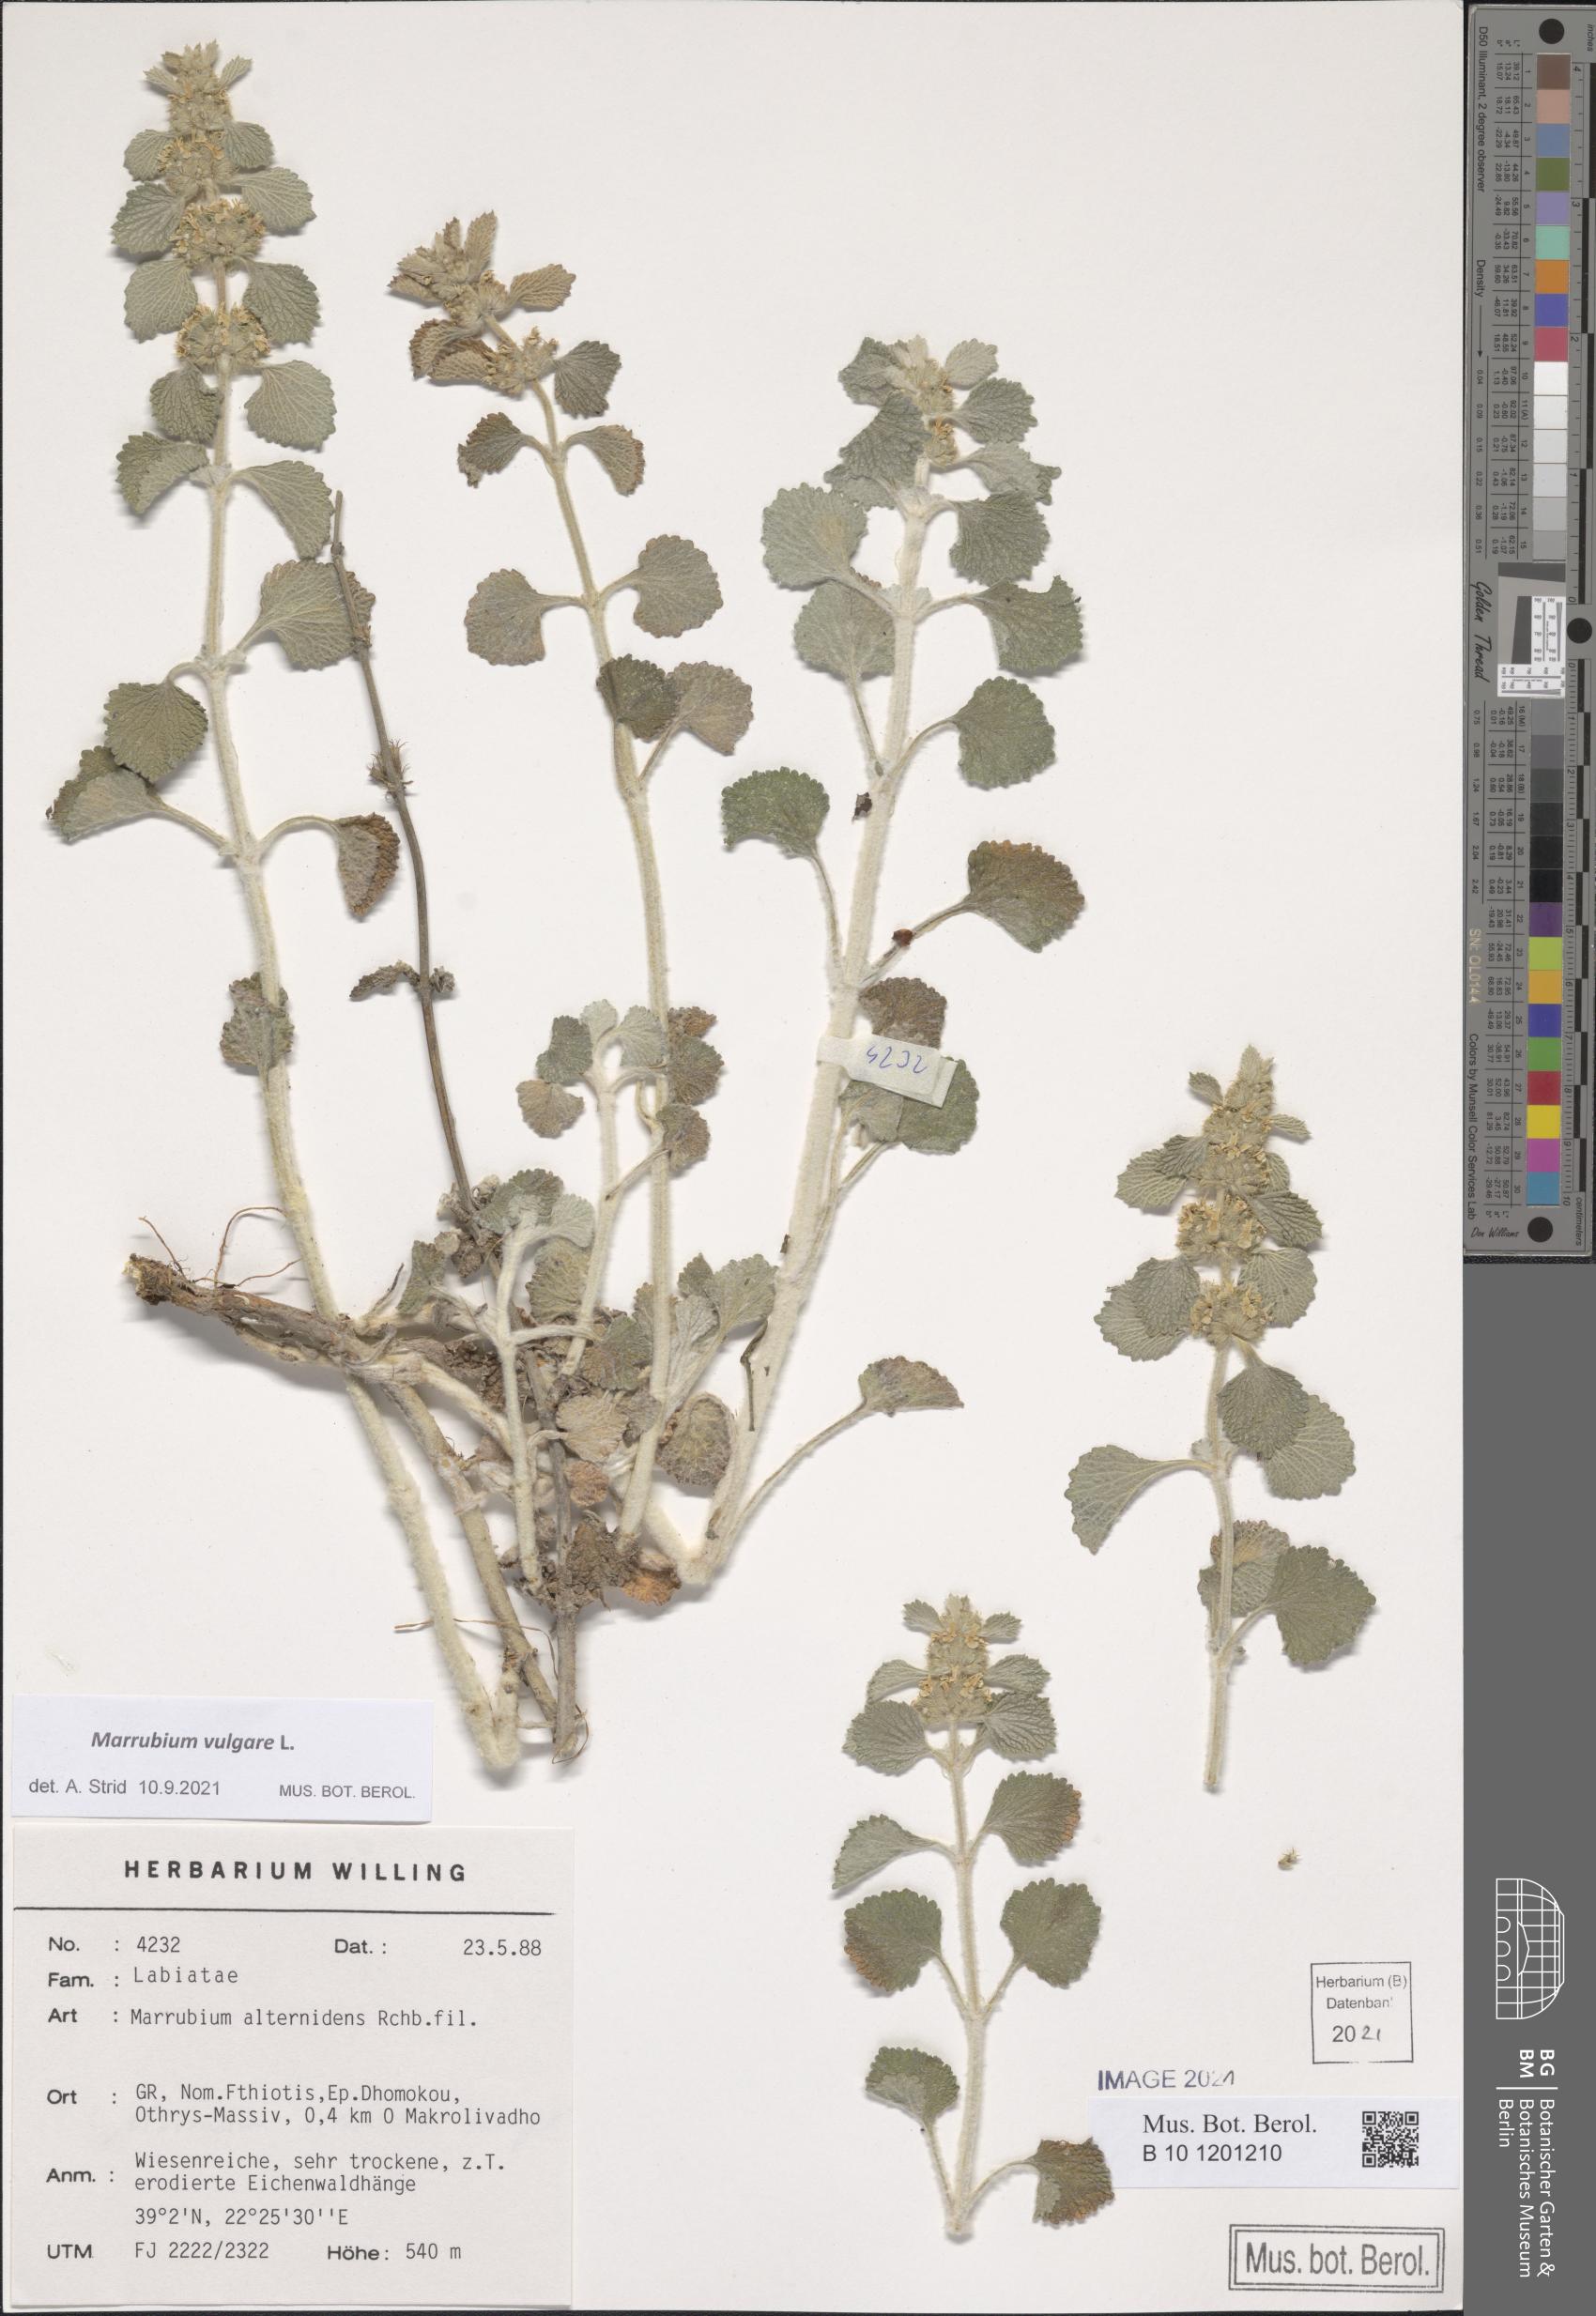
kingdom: Plantae
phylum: Tracheophyta
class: Magnoliopsida
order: Lamiales
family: Lamiaceae
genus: Marrubium
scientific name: Marrubium vulgare
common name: Horehound
